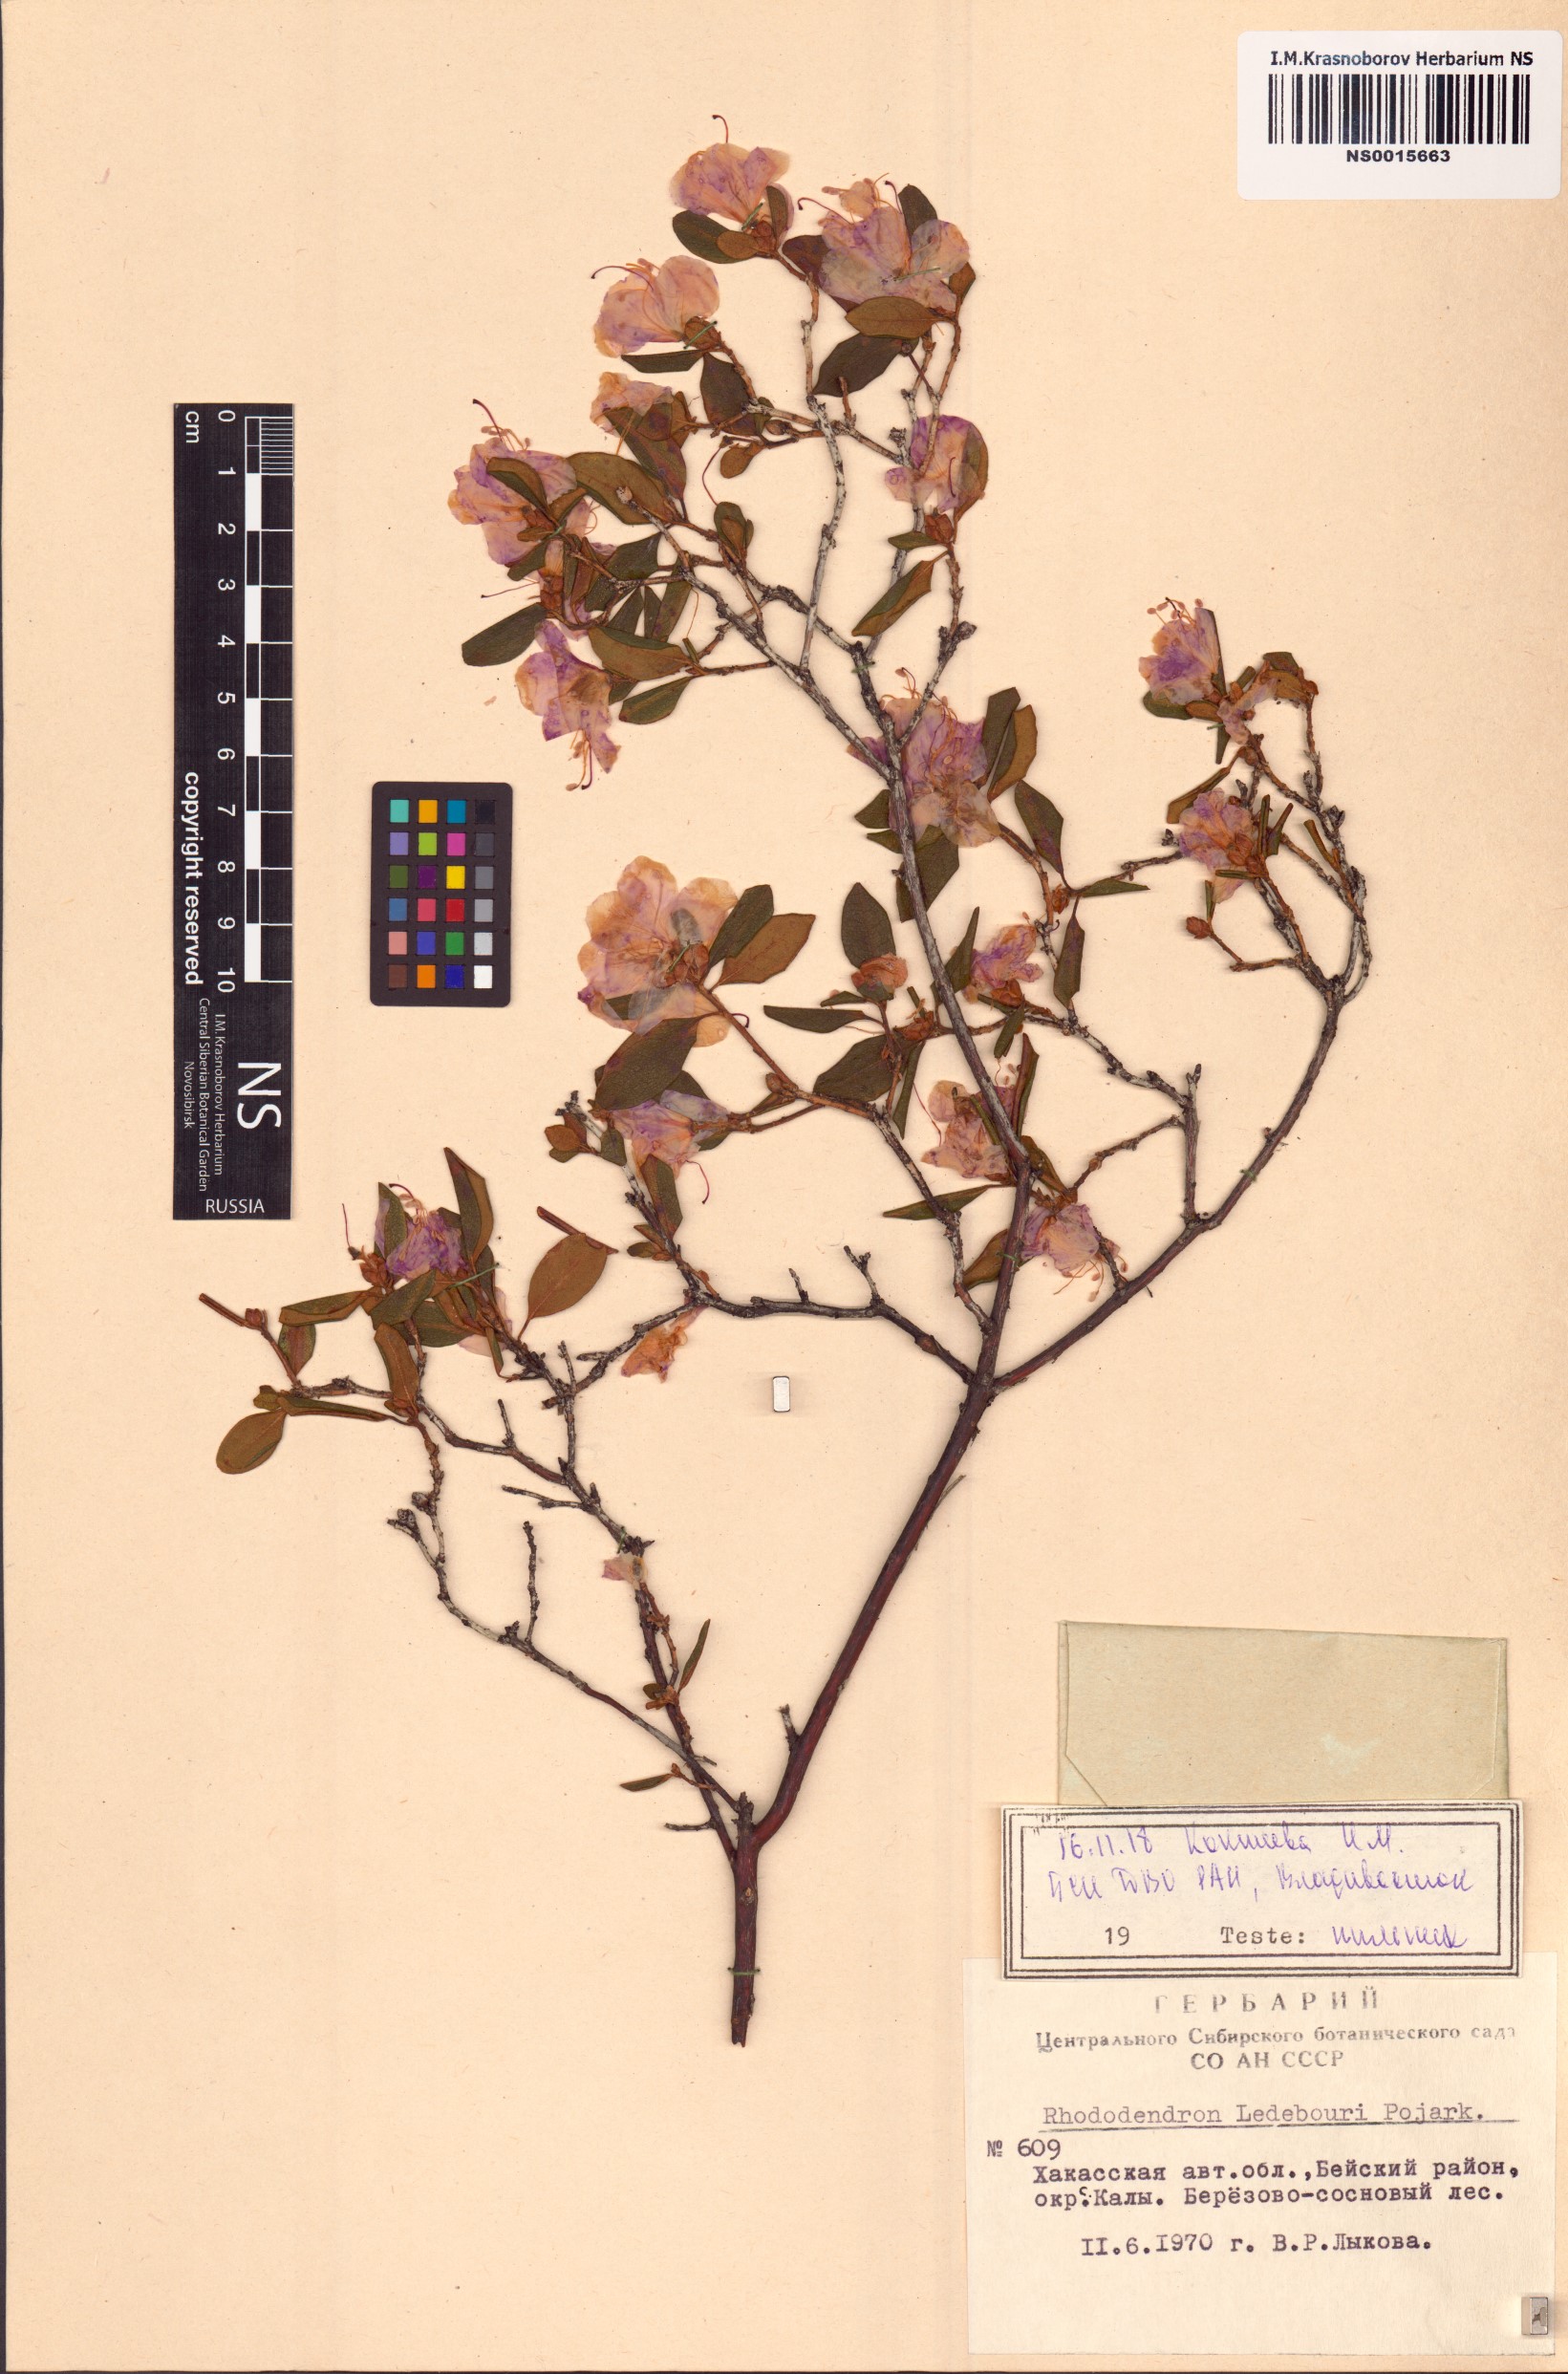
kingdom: Plantae
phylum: Tracheophyta
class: Magnoliopsida
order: Ericales
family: Ericaceae
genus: Rhododendron
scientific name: Rhododendron dauricum
